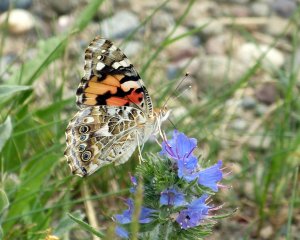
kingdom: Animalia
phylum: Arthropoda
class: Insecta
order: Lepidoptera
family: Nymphalidae
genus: Vanessa
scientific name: Vanessa cardui
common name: Painted Lady
